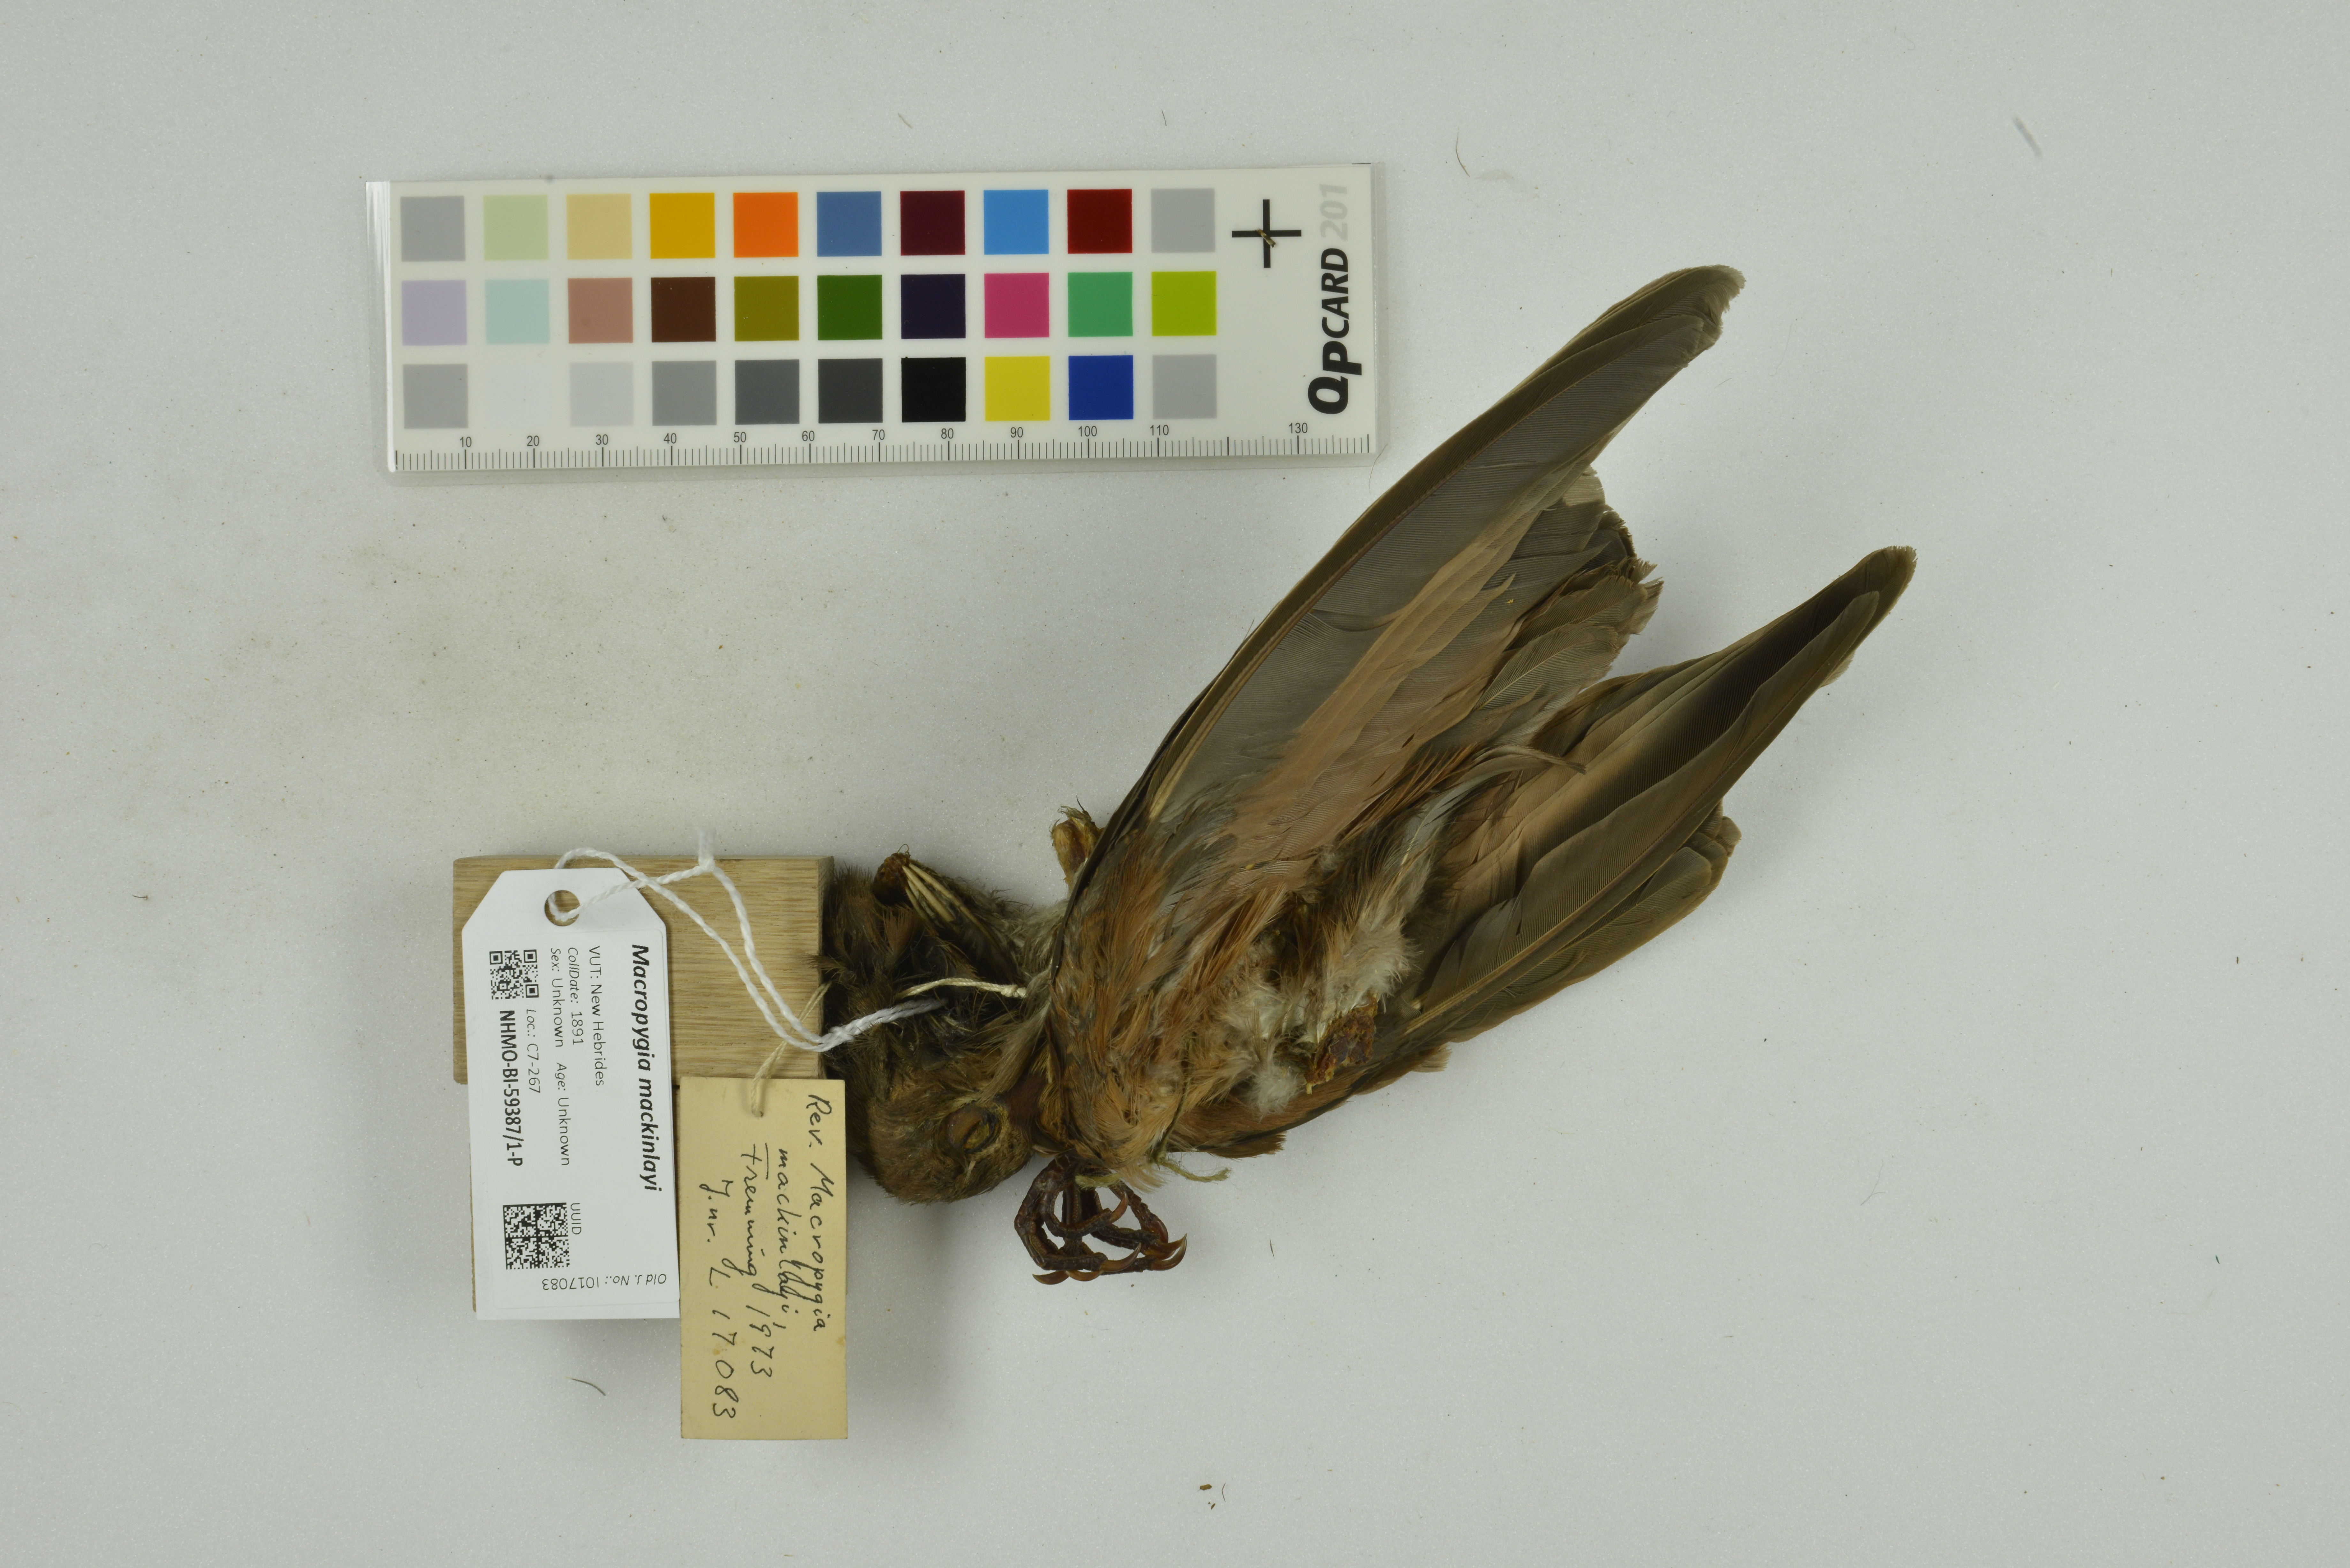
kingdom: Animalia
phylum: Chordata
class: Aves
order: Columbiformes
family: Columbidae
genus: Macropygia
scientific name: Macropygia mackinlayi
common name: Mackinlay's cuckoo-dove
